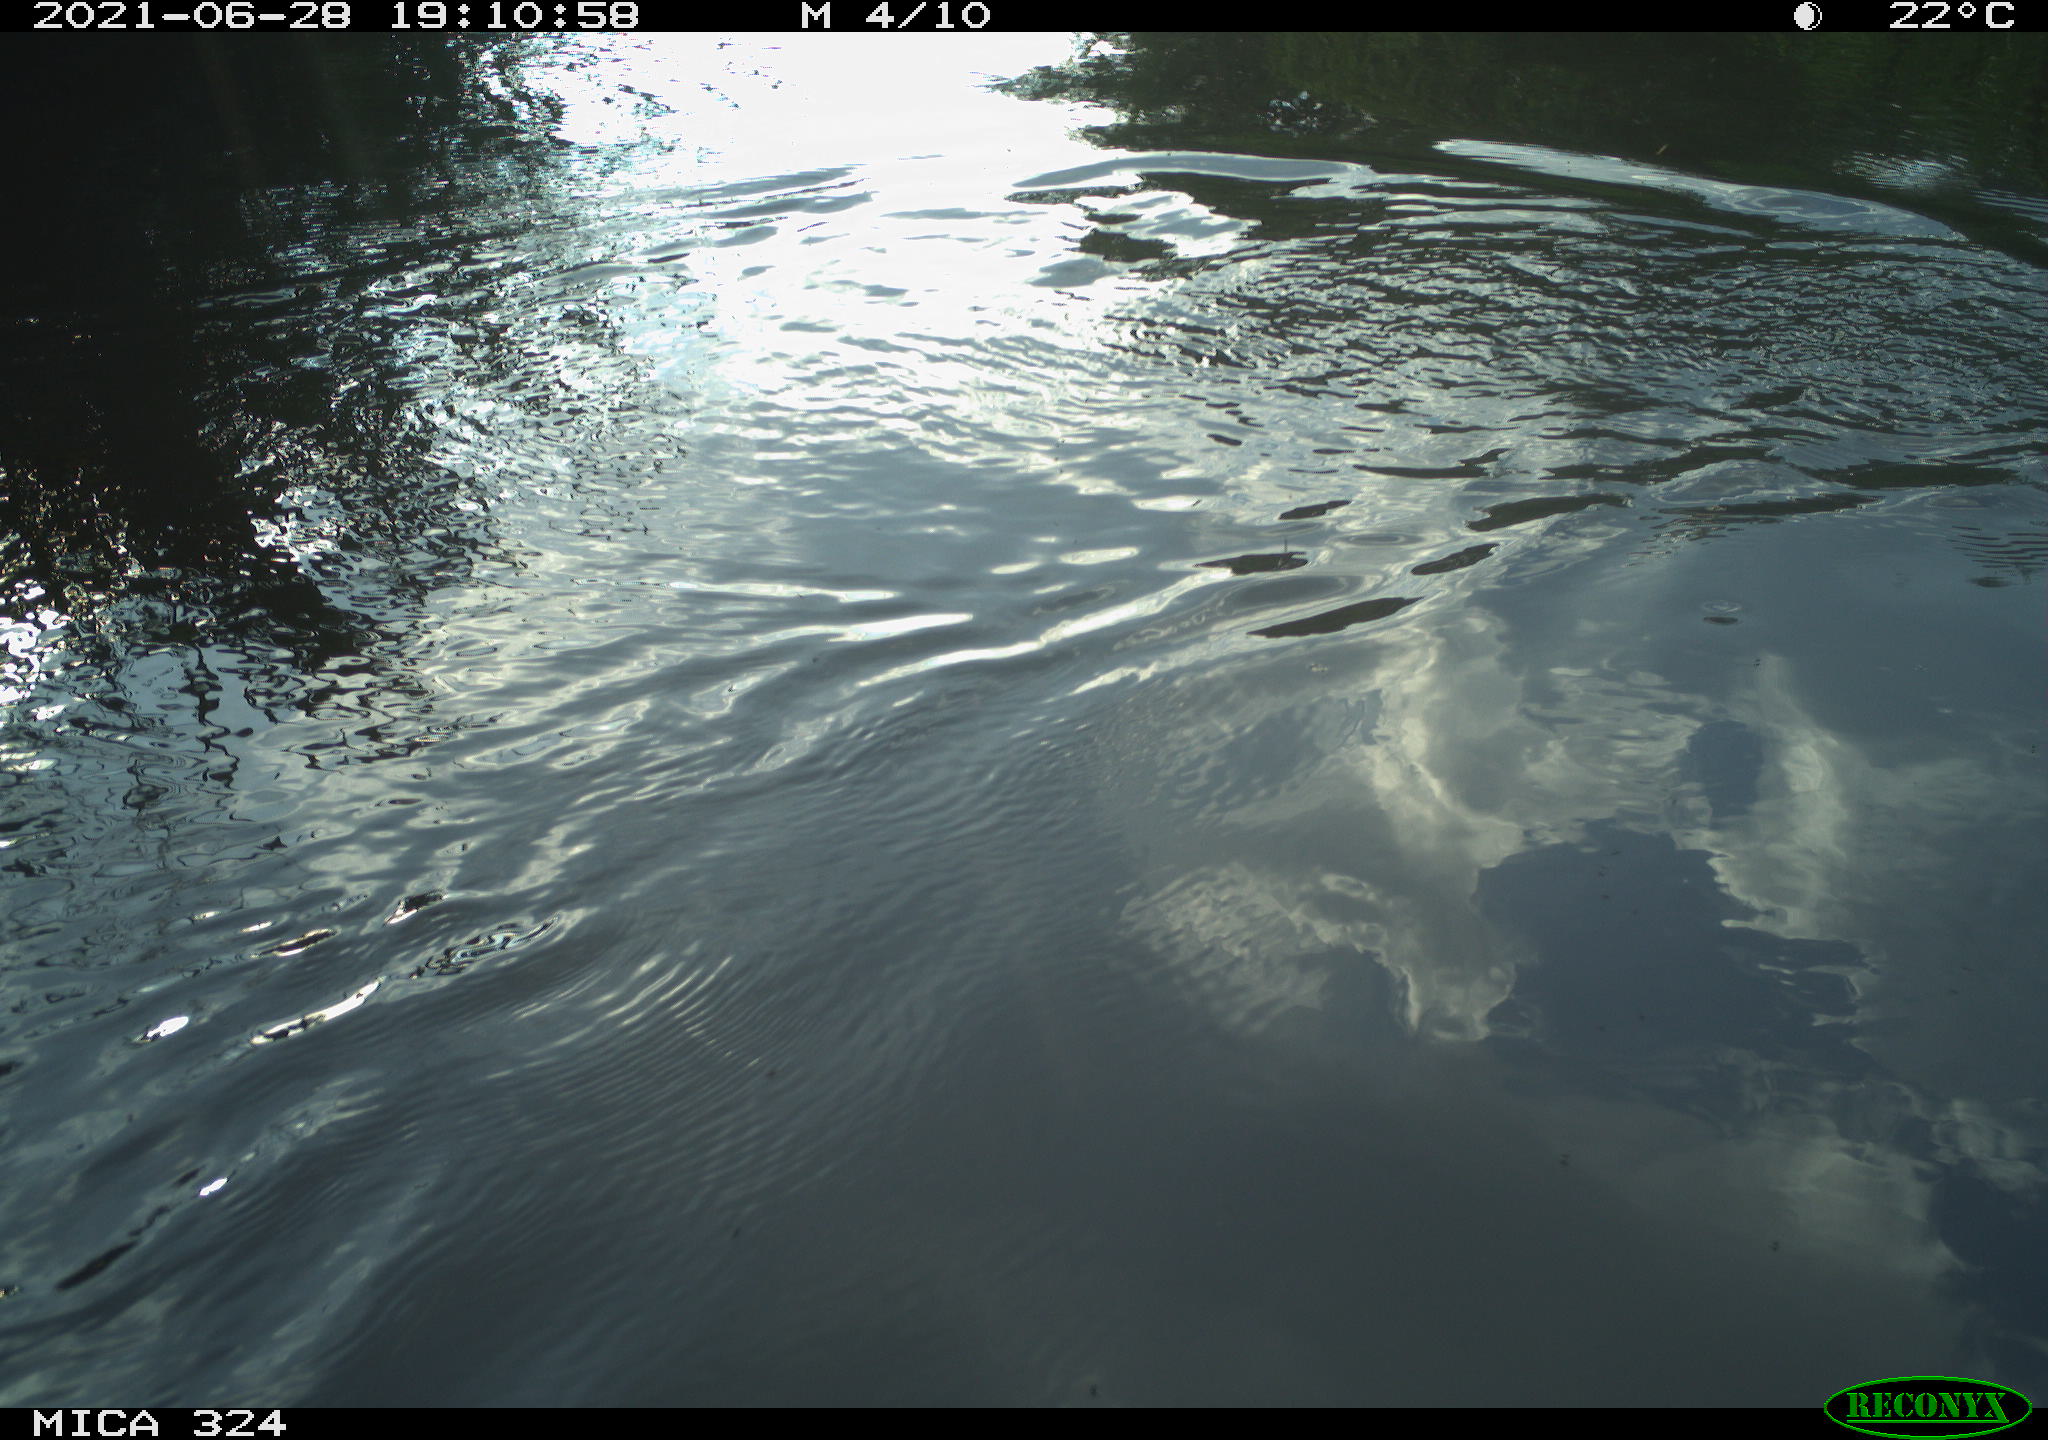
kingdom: Animalia
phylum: Chordata
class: Aves
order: Gruiformes
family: Rallidae
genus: Gallinula
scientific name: Gallinula chloropus
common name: Common moorhen
